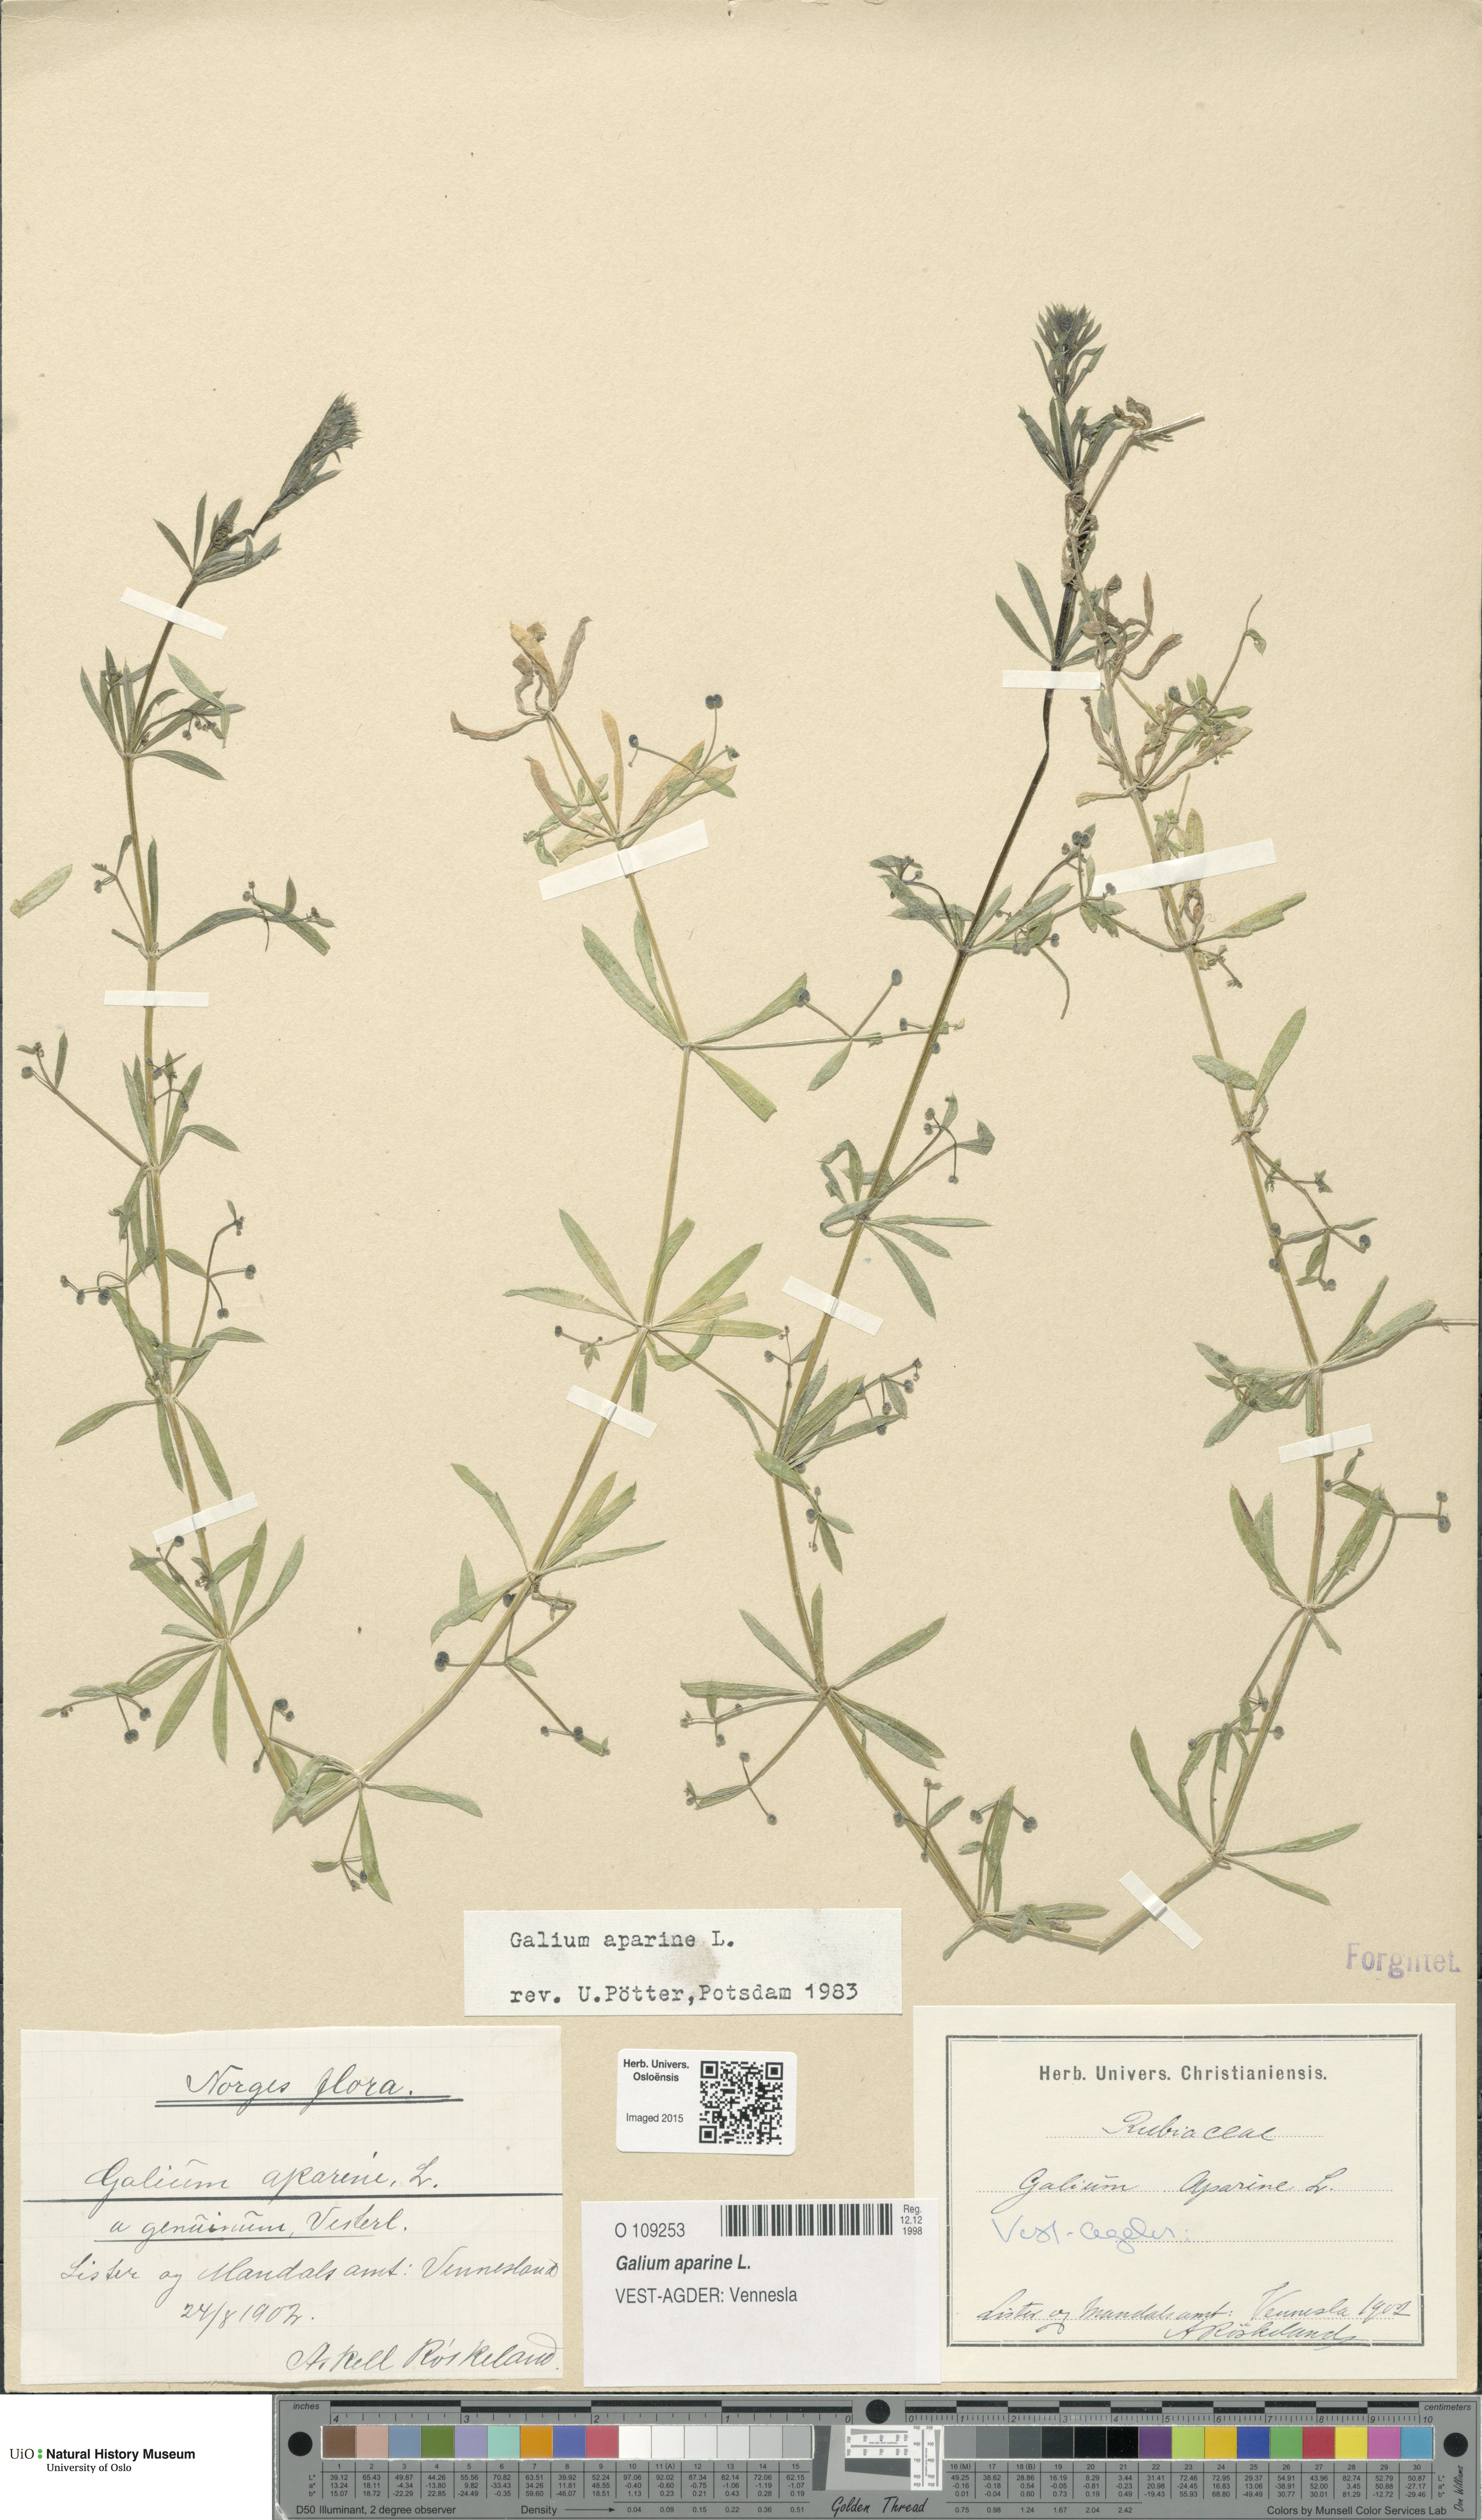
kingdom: Plantae
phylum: Tracheophyta
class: Magnoliopsida
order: Gentianales
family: Rubiaceae
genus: Galium
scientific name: Galium aparine
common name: Cleavers
